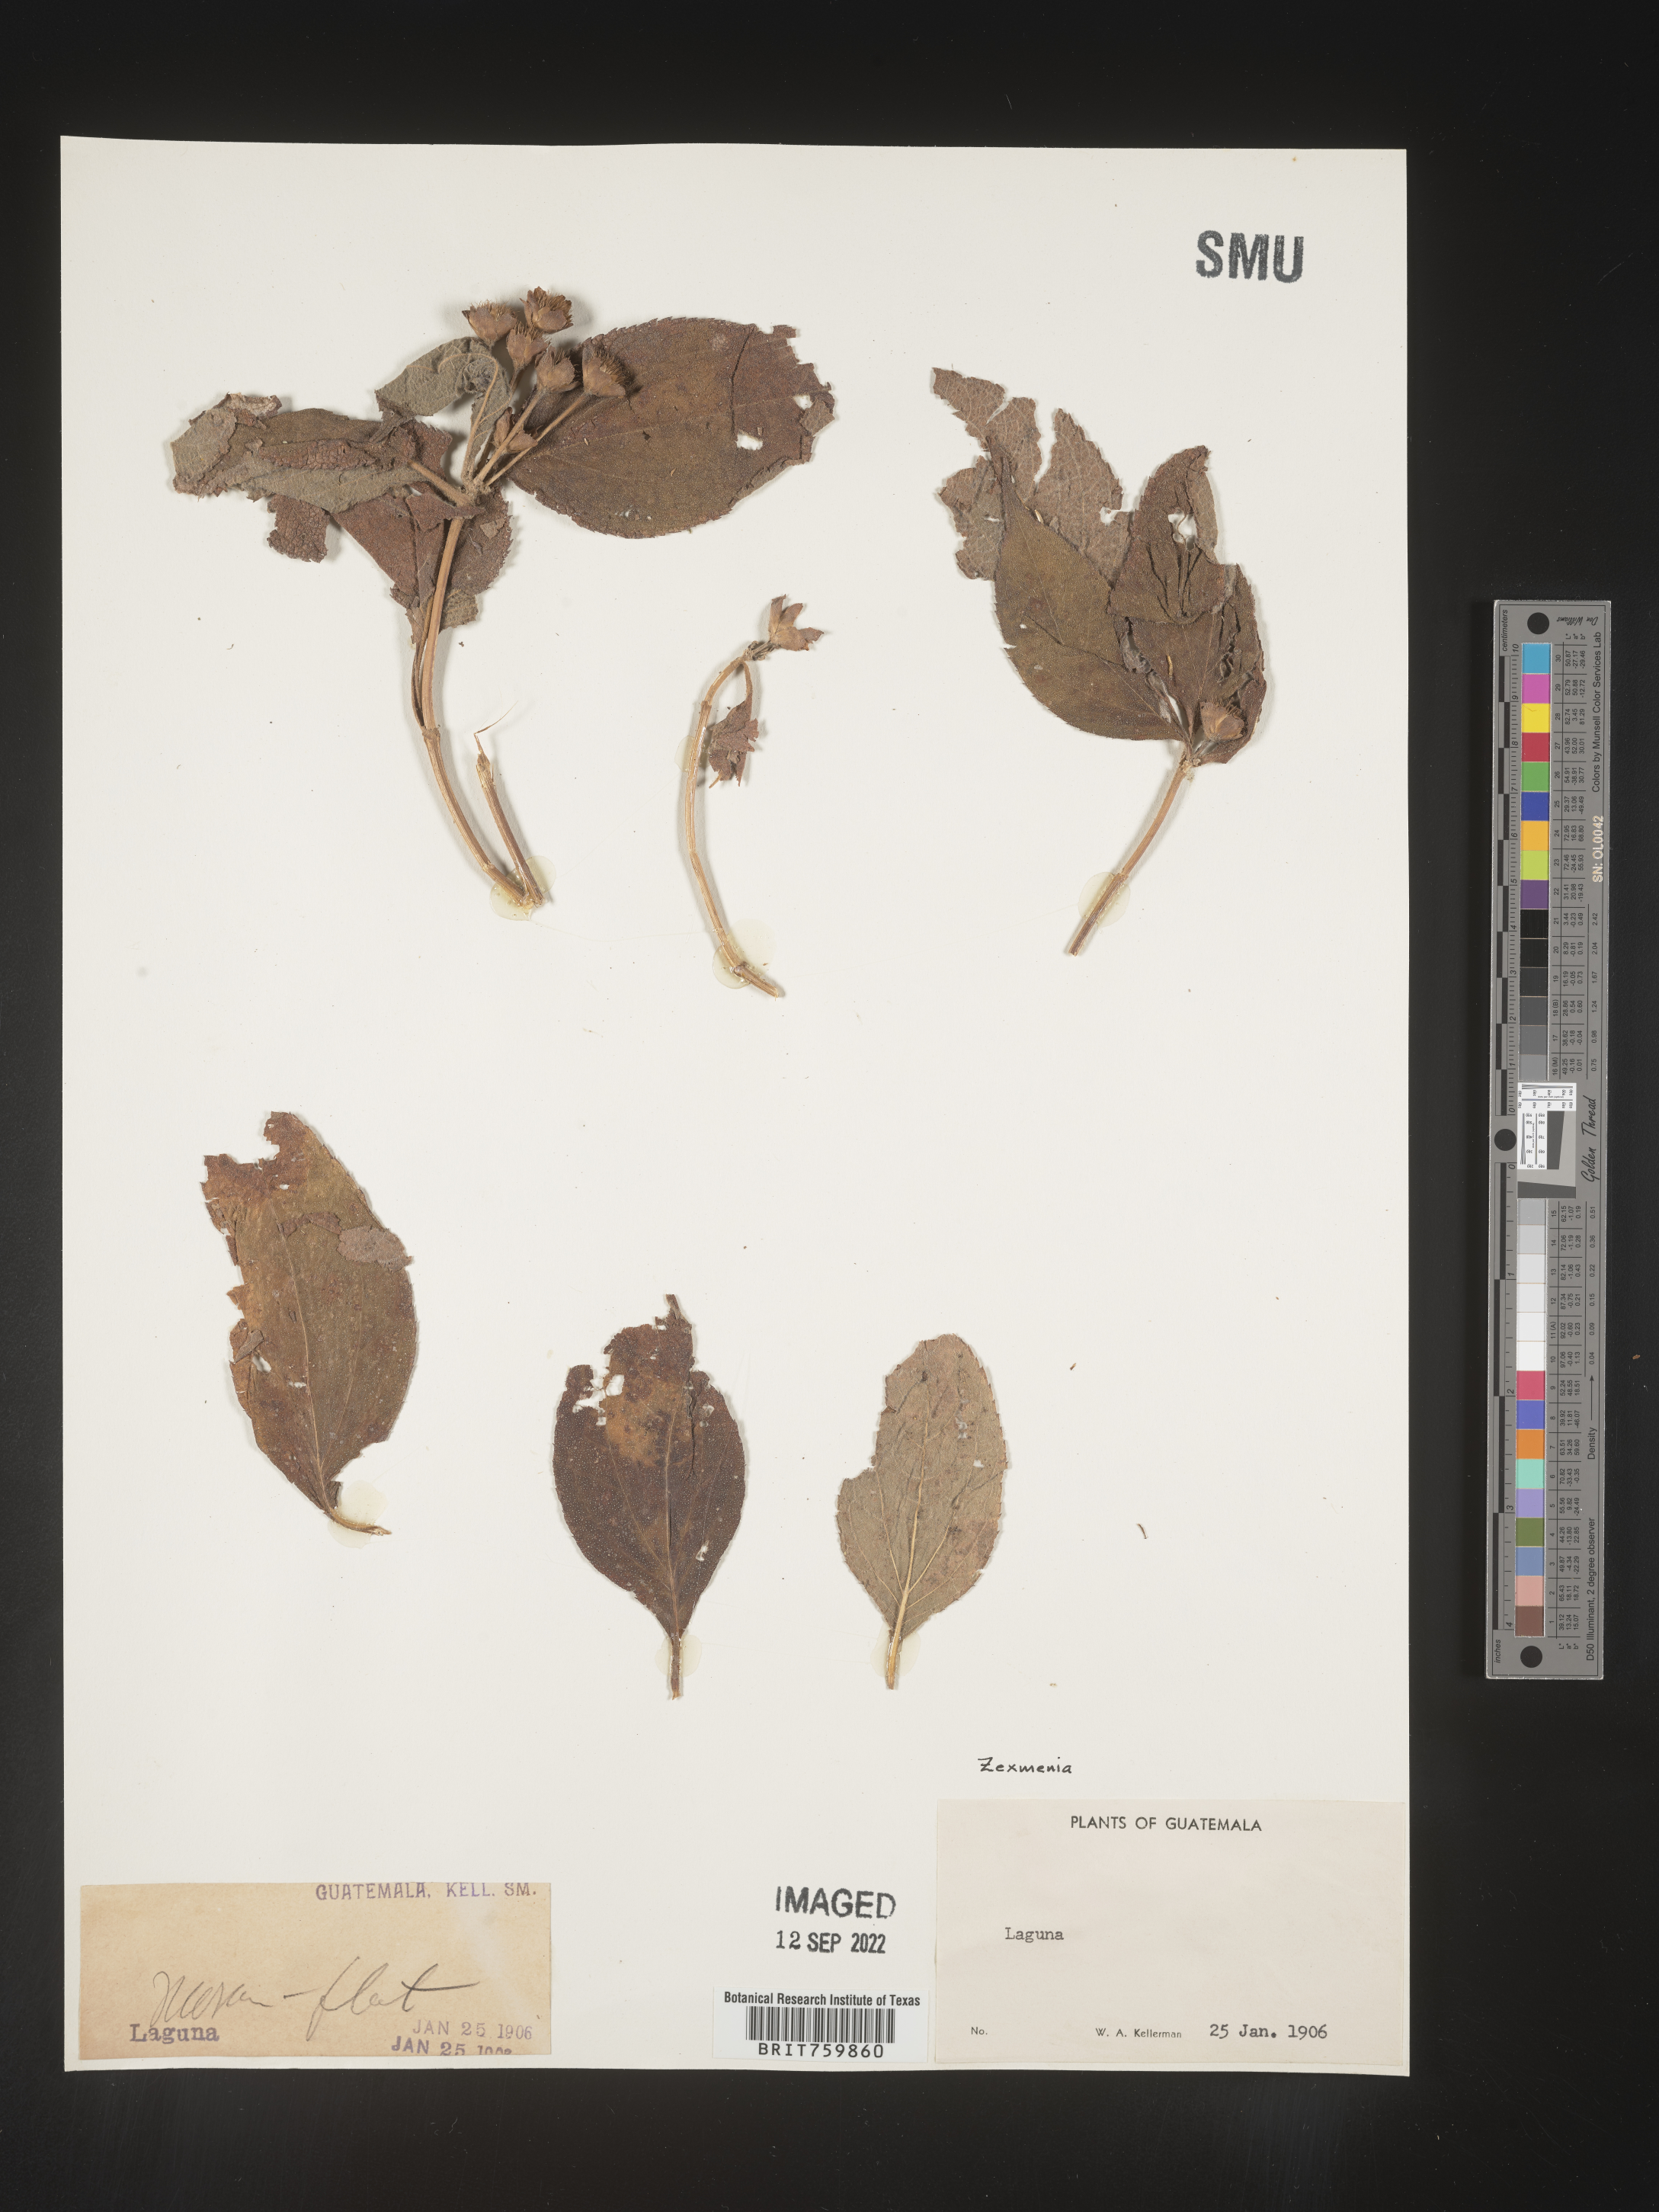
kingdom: Plantae
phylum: Tracheophyta
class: Magnoliopsida
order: Asterales
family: Asteraceae
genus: Zexmenia
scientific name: Zexmenia
